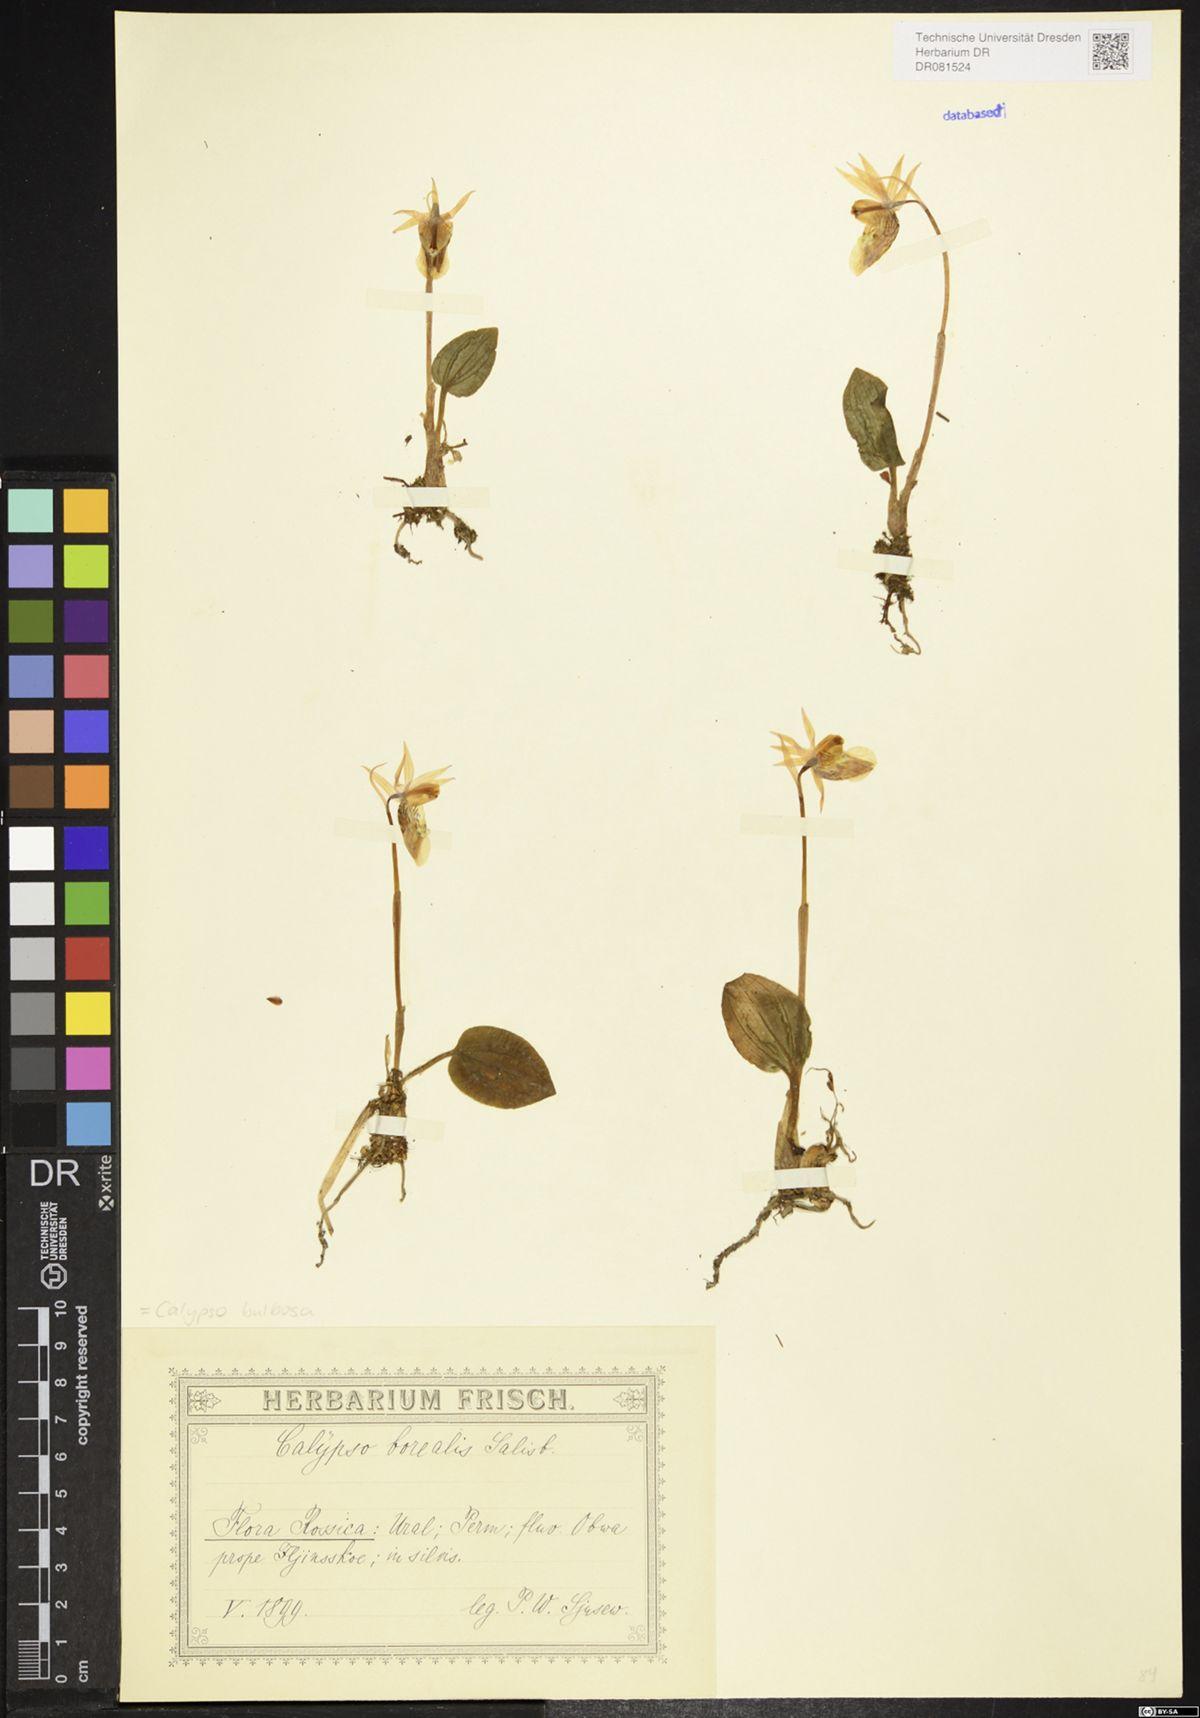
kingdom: Plantae
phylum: Tracheophyta
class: Liliopsida
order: Asparagales
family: Orchidaceae
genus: Calypso
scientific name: Calypso bulbosa
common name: Calypso
